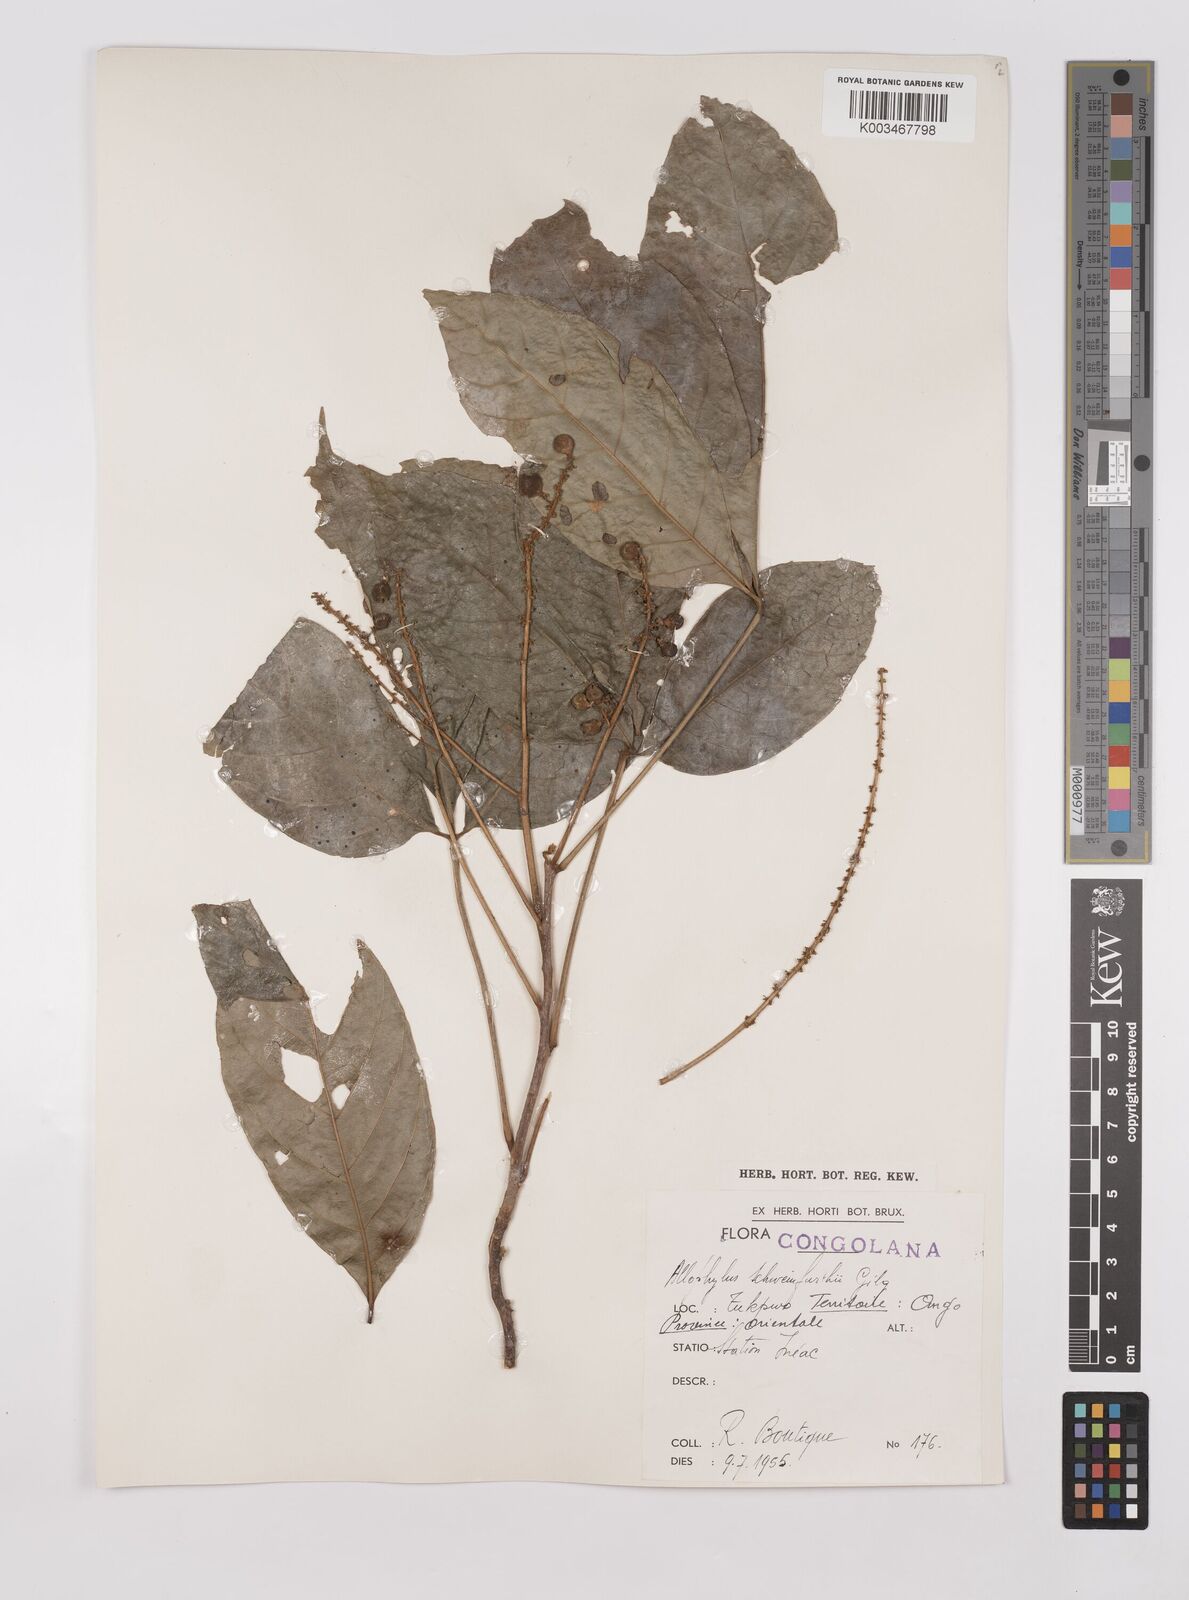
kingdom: Plantae
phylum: Tracheophyta
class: Magnoliopsida
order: Sapindales
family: Sapindaceae
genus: Allophylus
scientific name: Allophylus africanus
